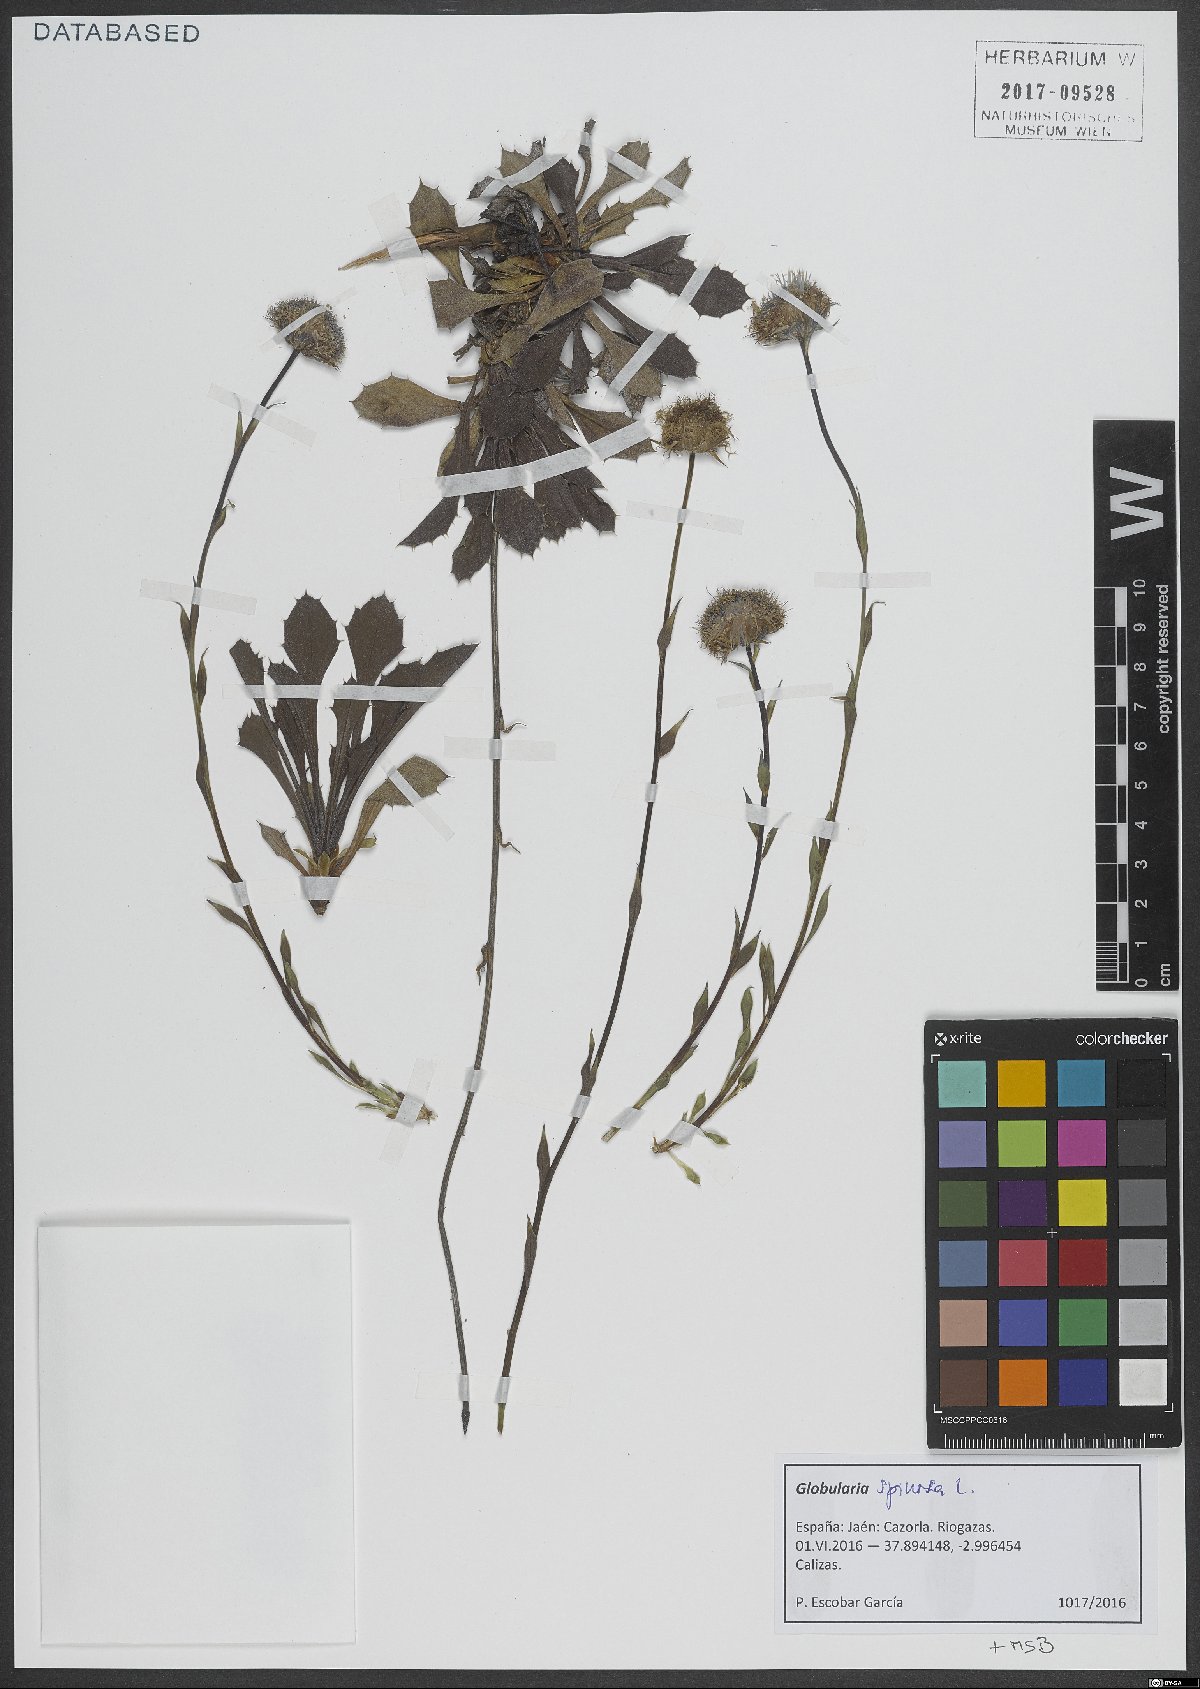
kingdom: Plantae
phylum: Tracheophyta
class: Magnoliopsida
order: Lamiales
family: Plantaginaceae
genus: Globularia
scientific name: Globularia spinosa
